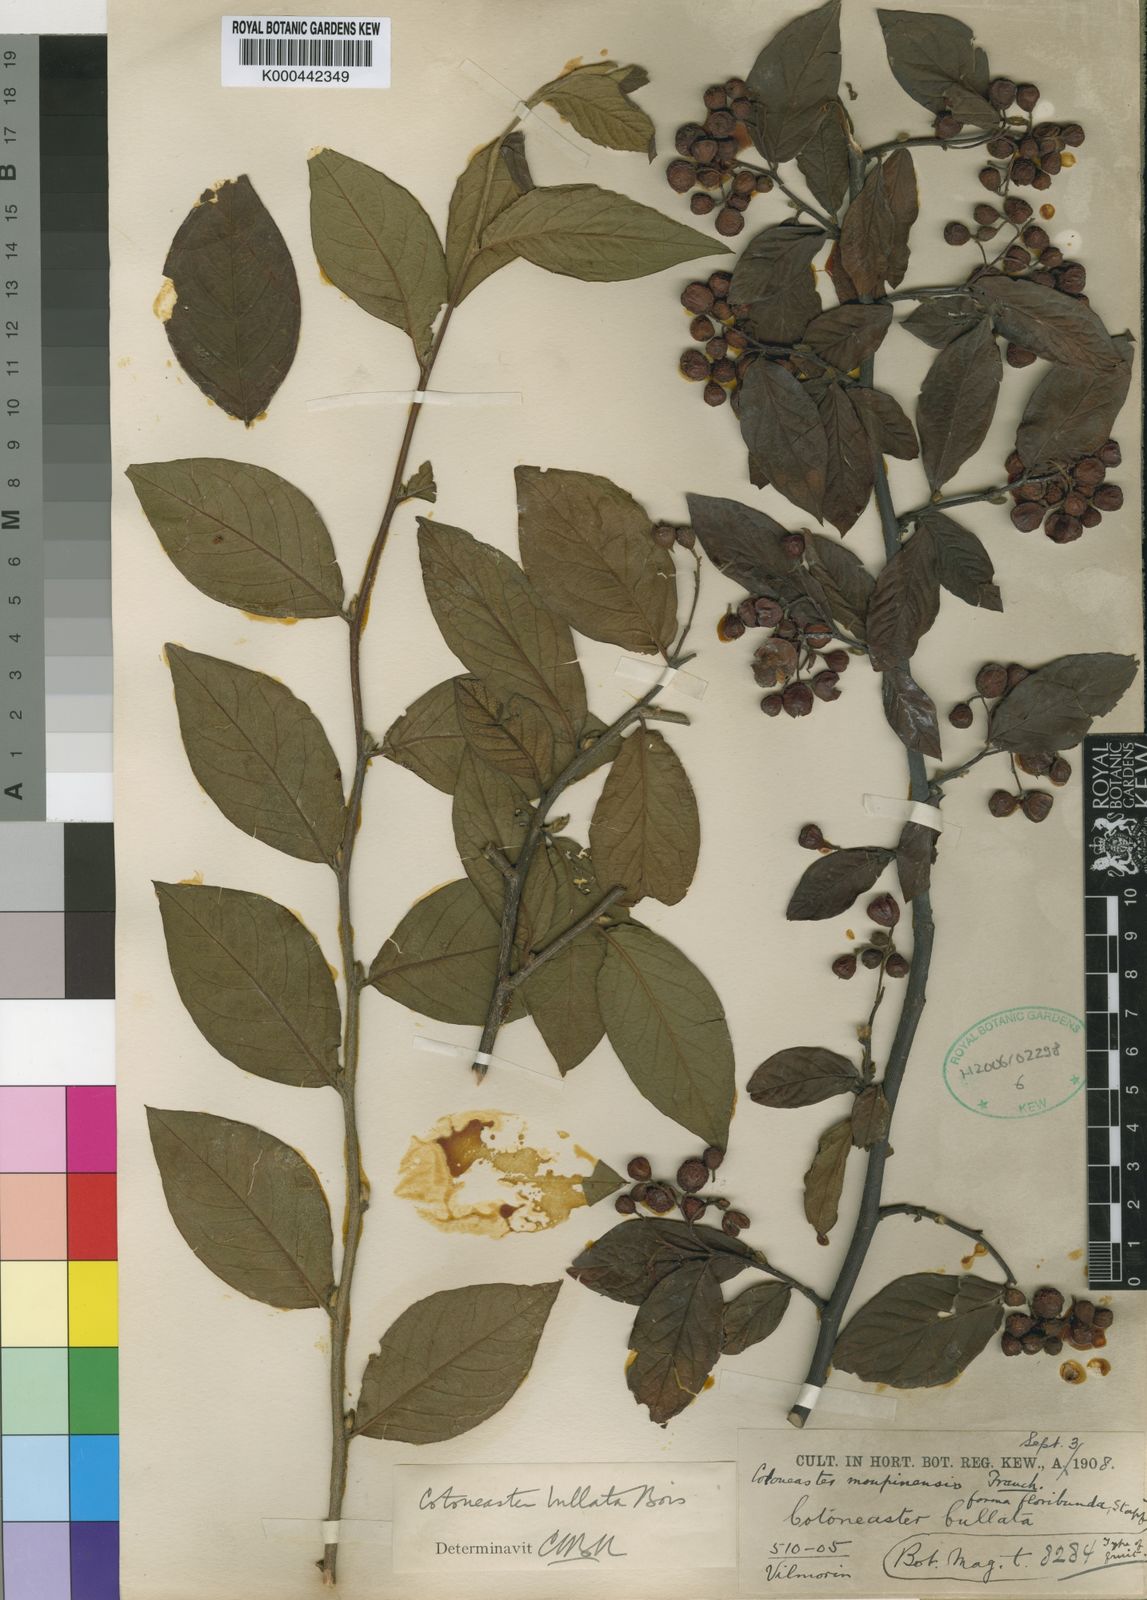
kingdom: Plantae
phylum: Tracheophyta
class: Magnoliopsida
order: Rosales
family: Rosaceae
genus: Cotoneaster
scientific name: Cotoneaster bullatus
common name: Hollyberry cotoneaster
